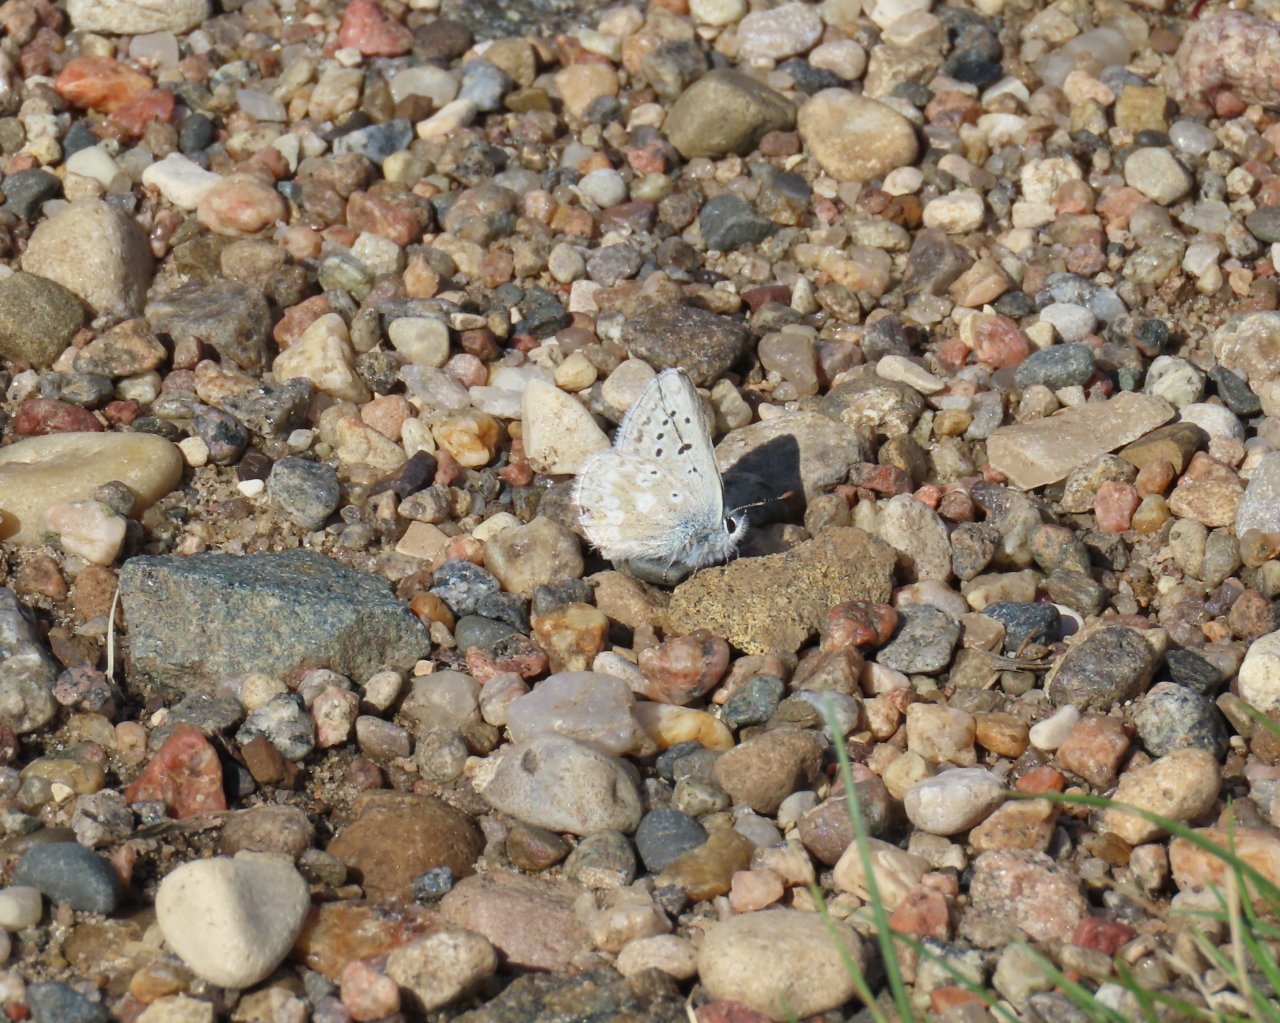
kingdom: Animalia
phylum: Arthropoda
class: Insecta
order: Lepidoptera
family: Lycaenidae
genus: Agriades
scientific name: Agriades glandon
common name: Arctic Blue
